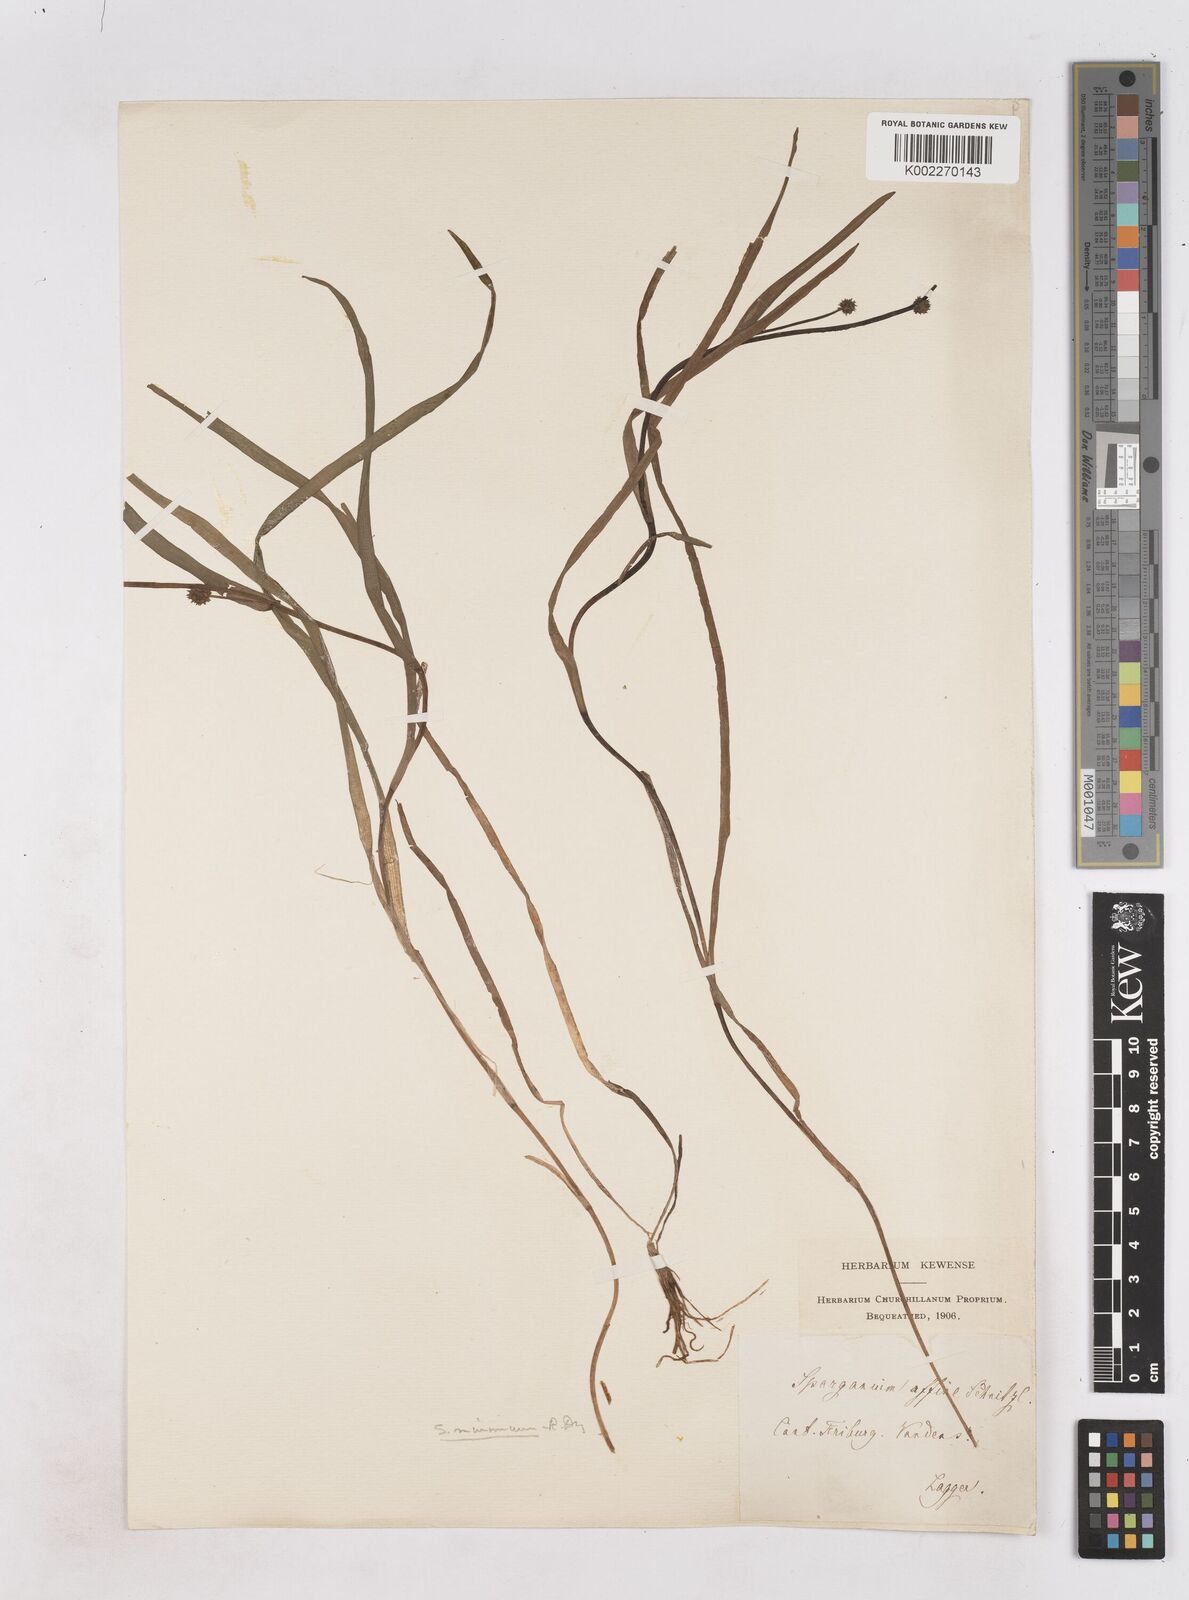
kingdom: Plantae
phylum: Tracheophyta
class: Liliopsida
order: Poales
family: Typhaceae
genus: Sparganium
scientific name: Sparganium natans
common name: Least bur-reed
